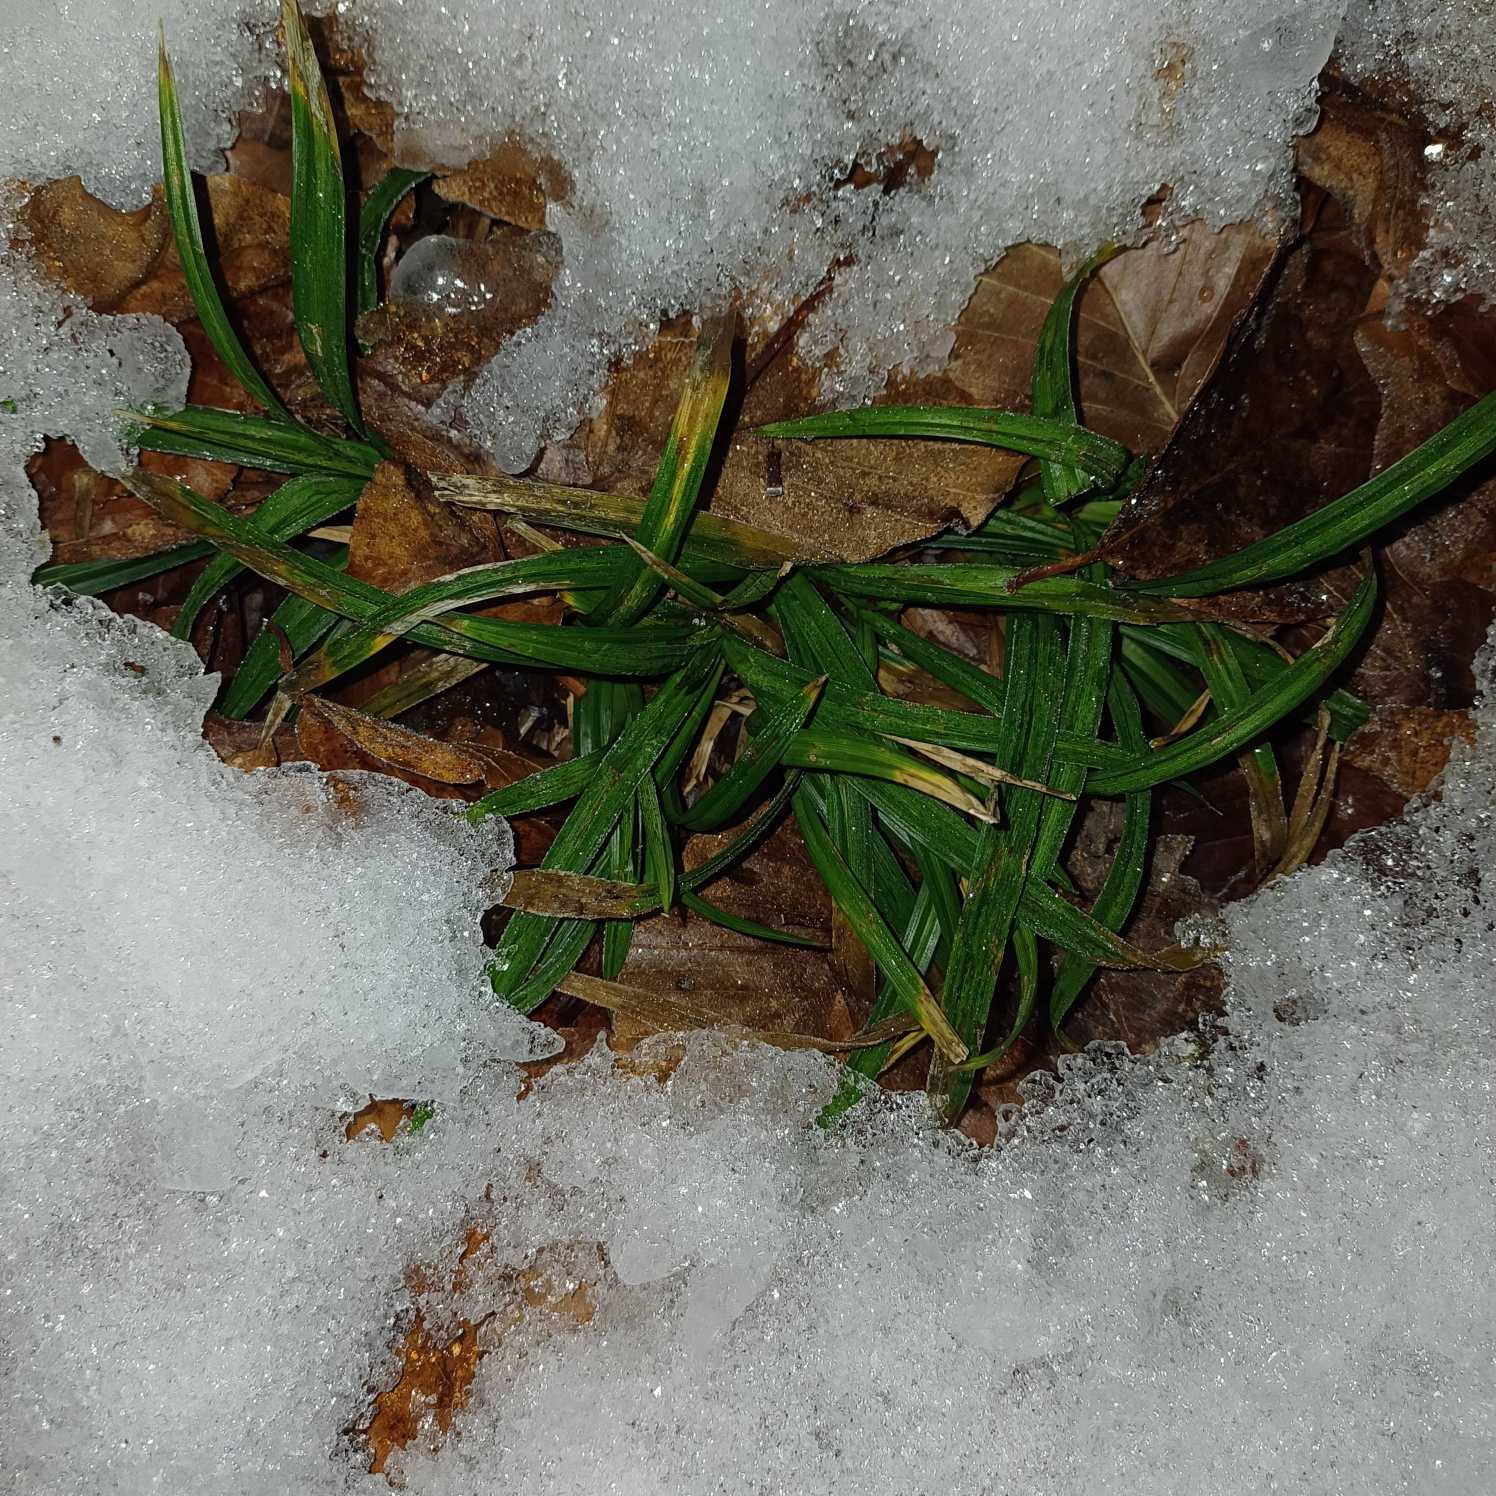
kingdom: Plantae
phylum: Tracheophyta
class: Liliopsida
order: Poales
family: Cyperaceae
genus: Carex
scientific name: Carex sylvatica
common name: Skov-star
